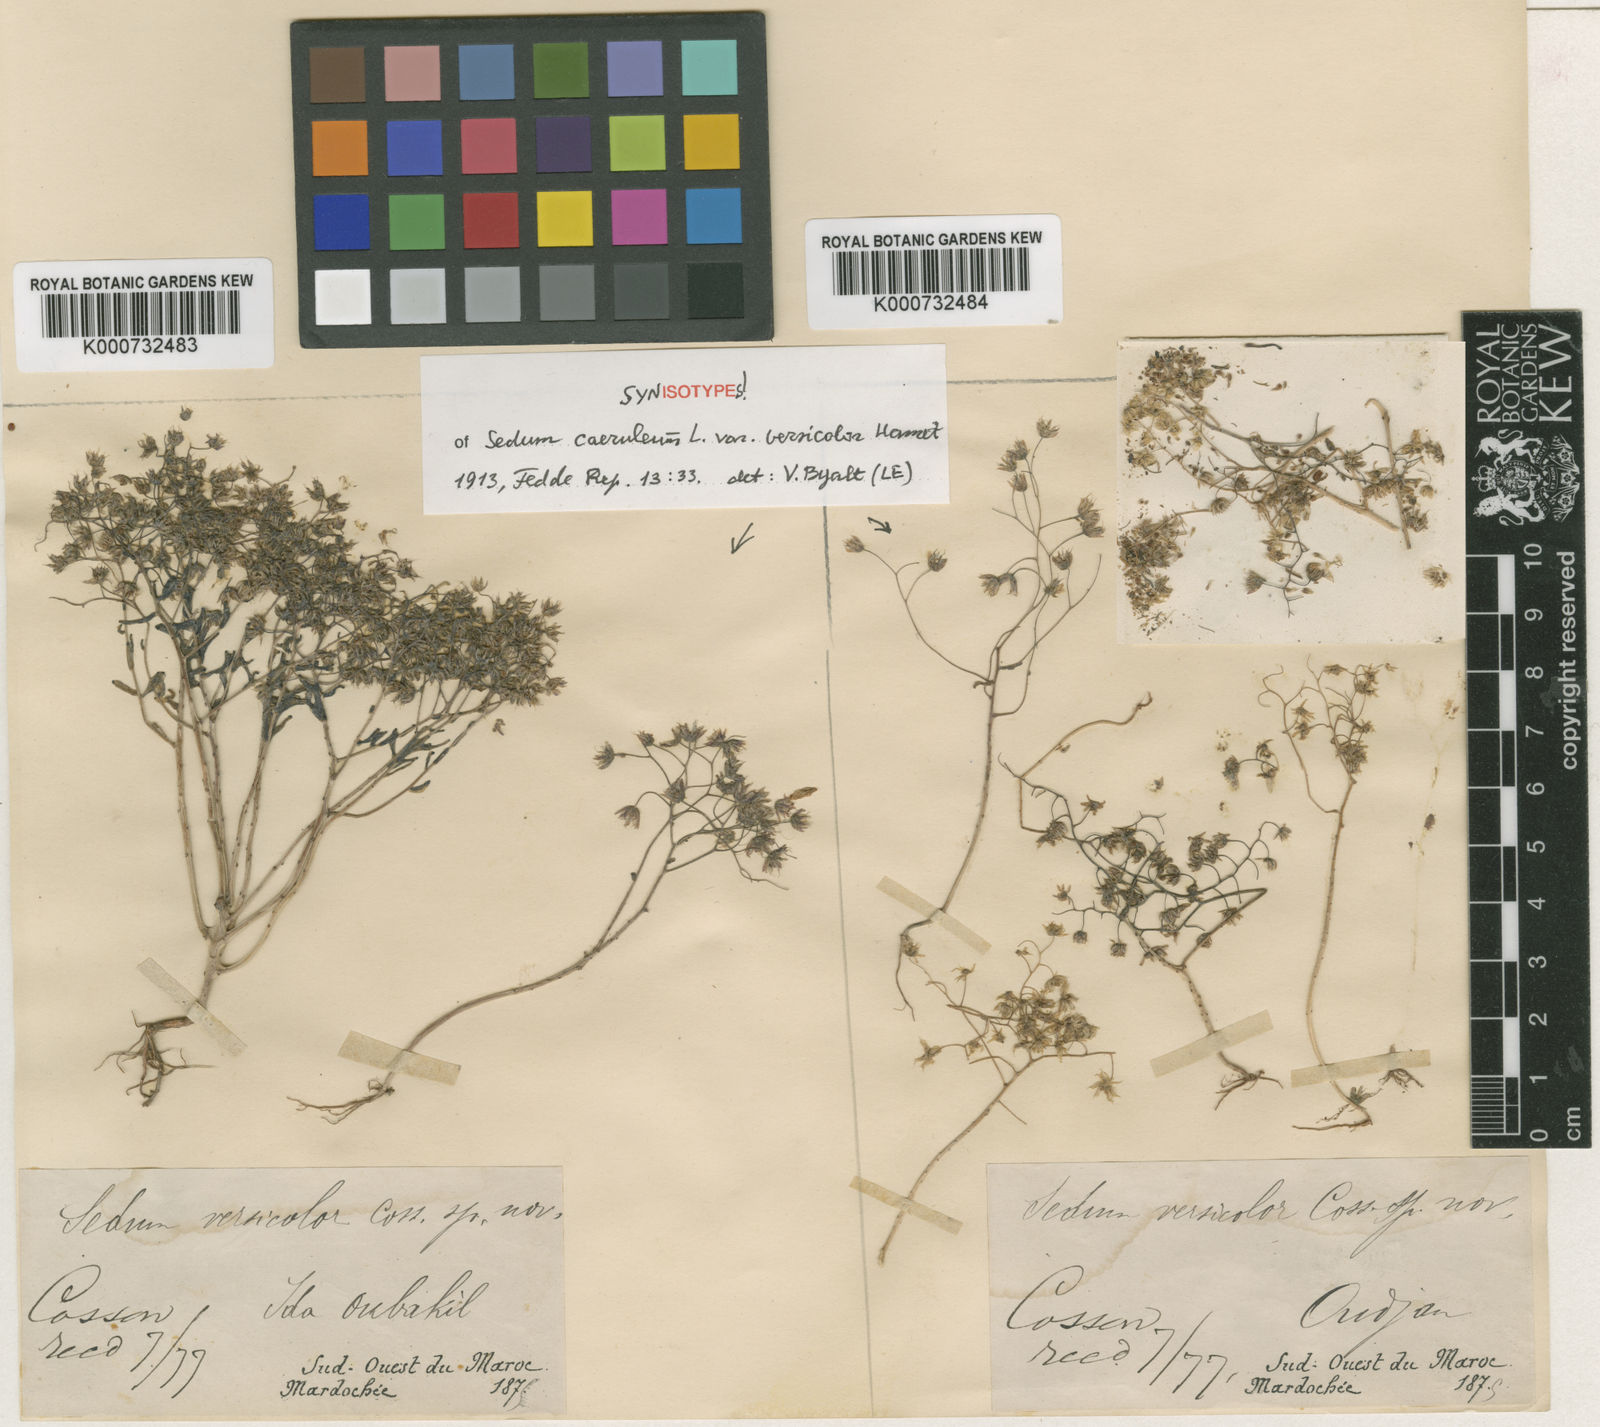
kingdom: Plantae
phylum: Tracheophyta
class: Magnoliopsida
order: Saxifragales
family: Crassulaceae
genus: Sedum
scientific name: Sedum
